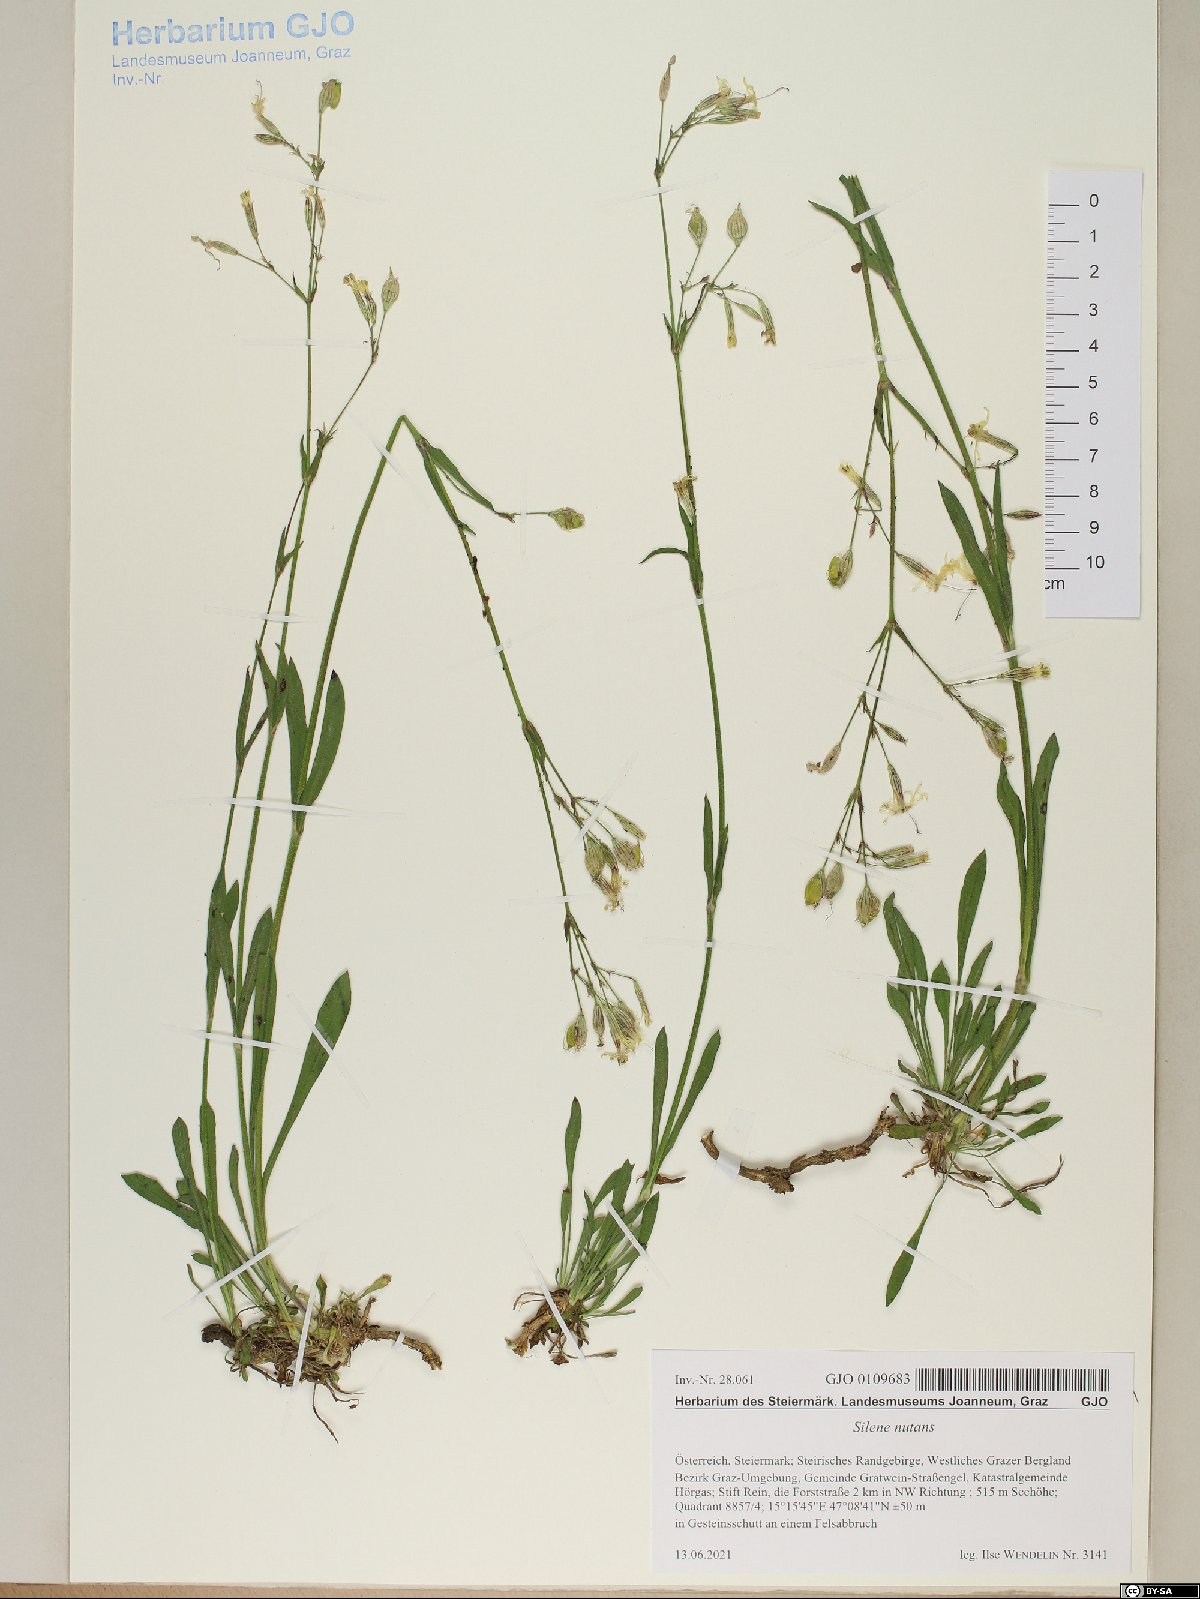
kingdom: Plantae
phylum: Tracheophyta
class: Magnoliopsida
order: Caryophyllales
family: Caryophyllaceae
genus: Silene
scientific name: Silene nutans
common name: Nottingham catchfly
